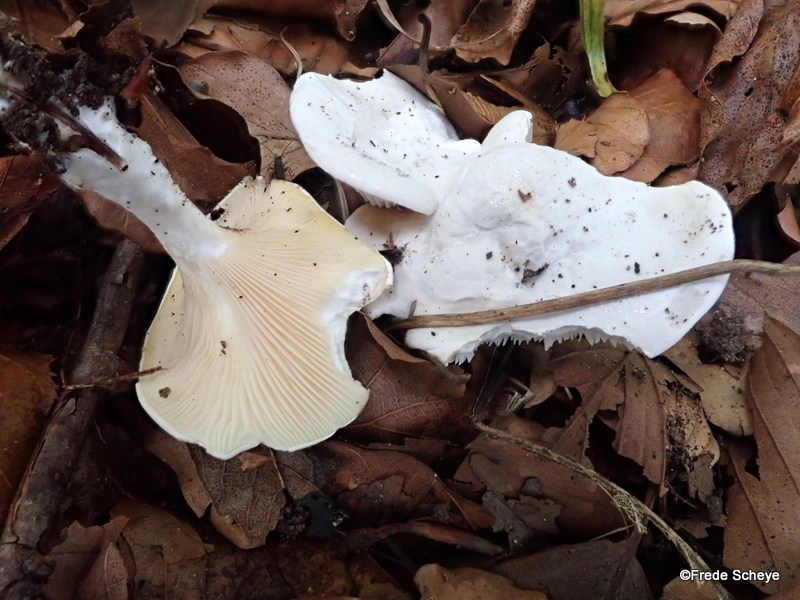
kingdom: Fungi
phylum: Basidiomycota
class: Agaricomycetes
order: Agaricales
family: Entolomataceae
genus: Clitopilus
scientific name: Clitopilus prunulus
